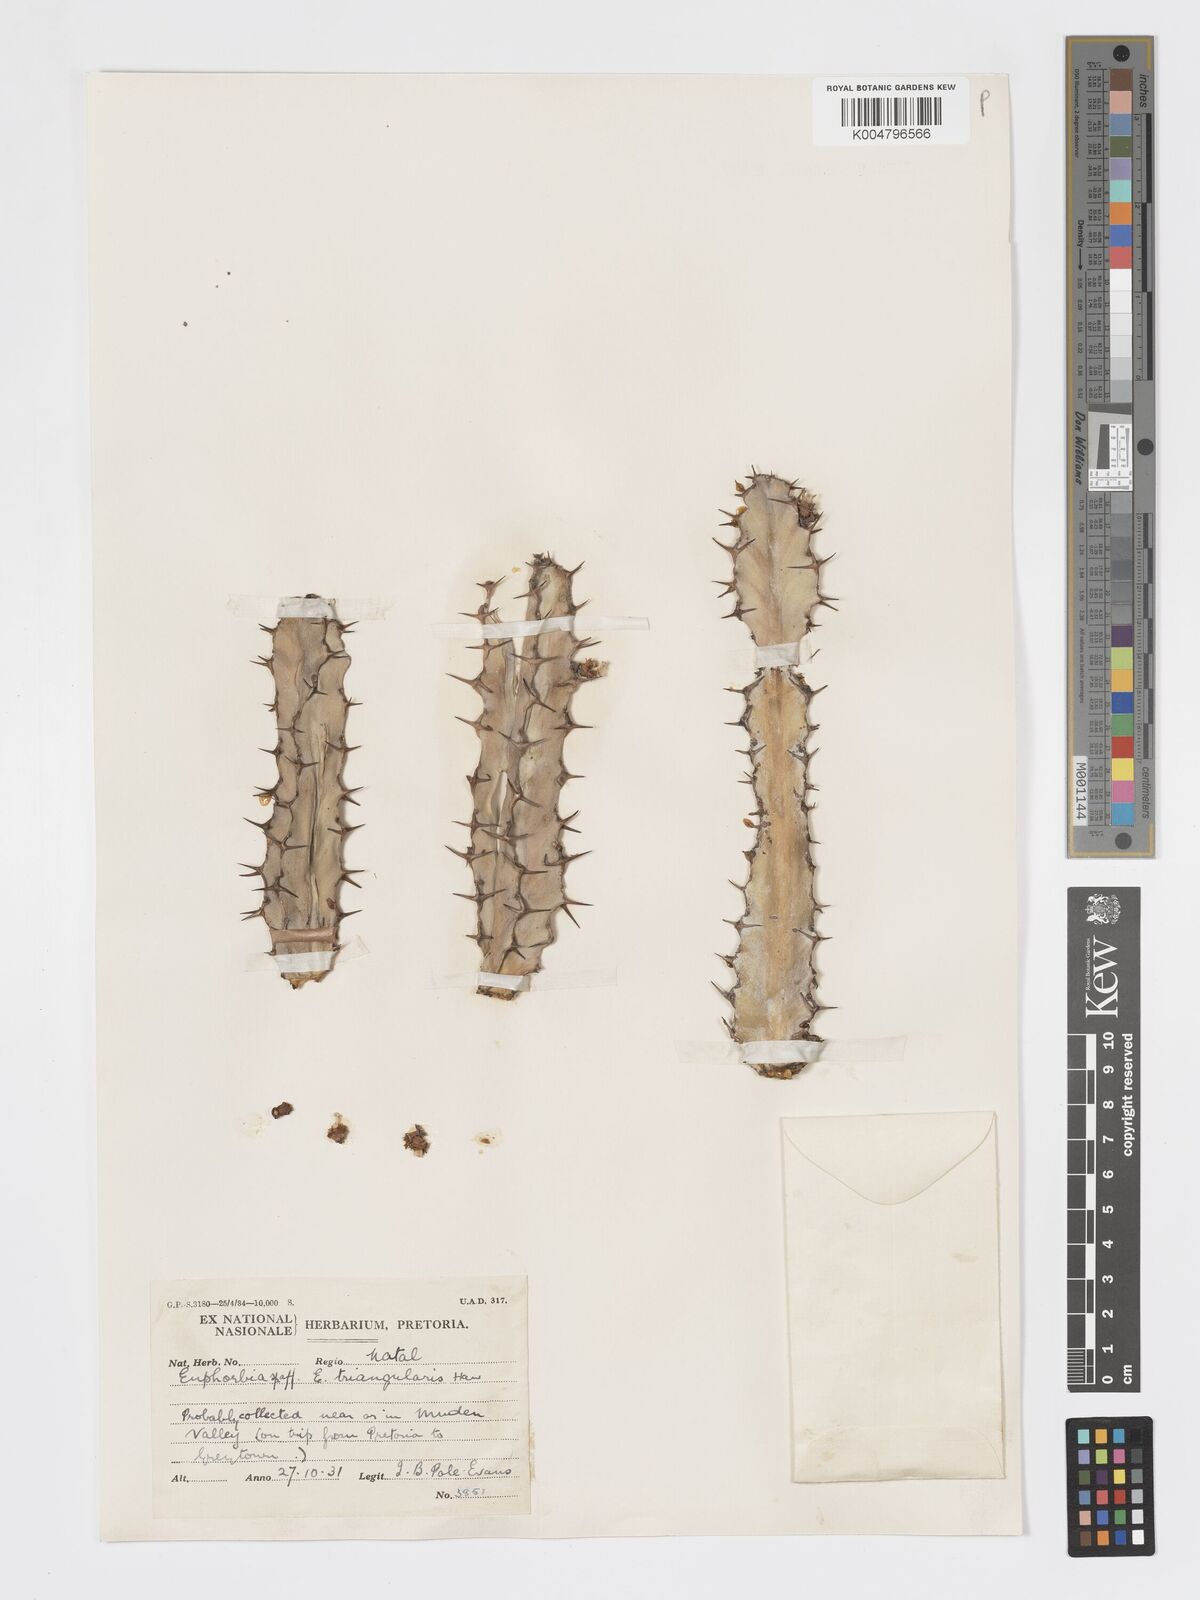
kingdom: Plantae
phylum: Tracheophyta
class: Magnoliopsida
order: Malpighiales
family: Euphorbiaceae
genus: Euphorbia
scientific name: Euphorbia triangularis
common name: Chandelier tree
